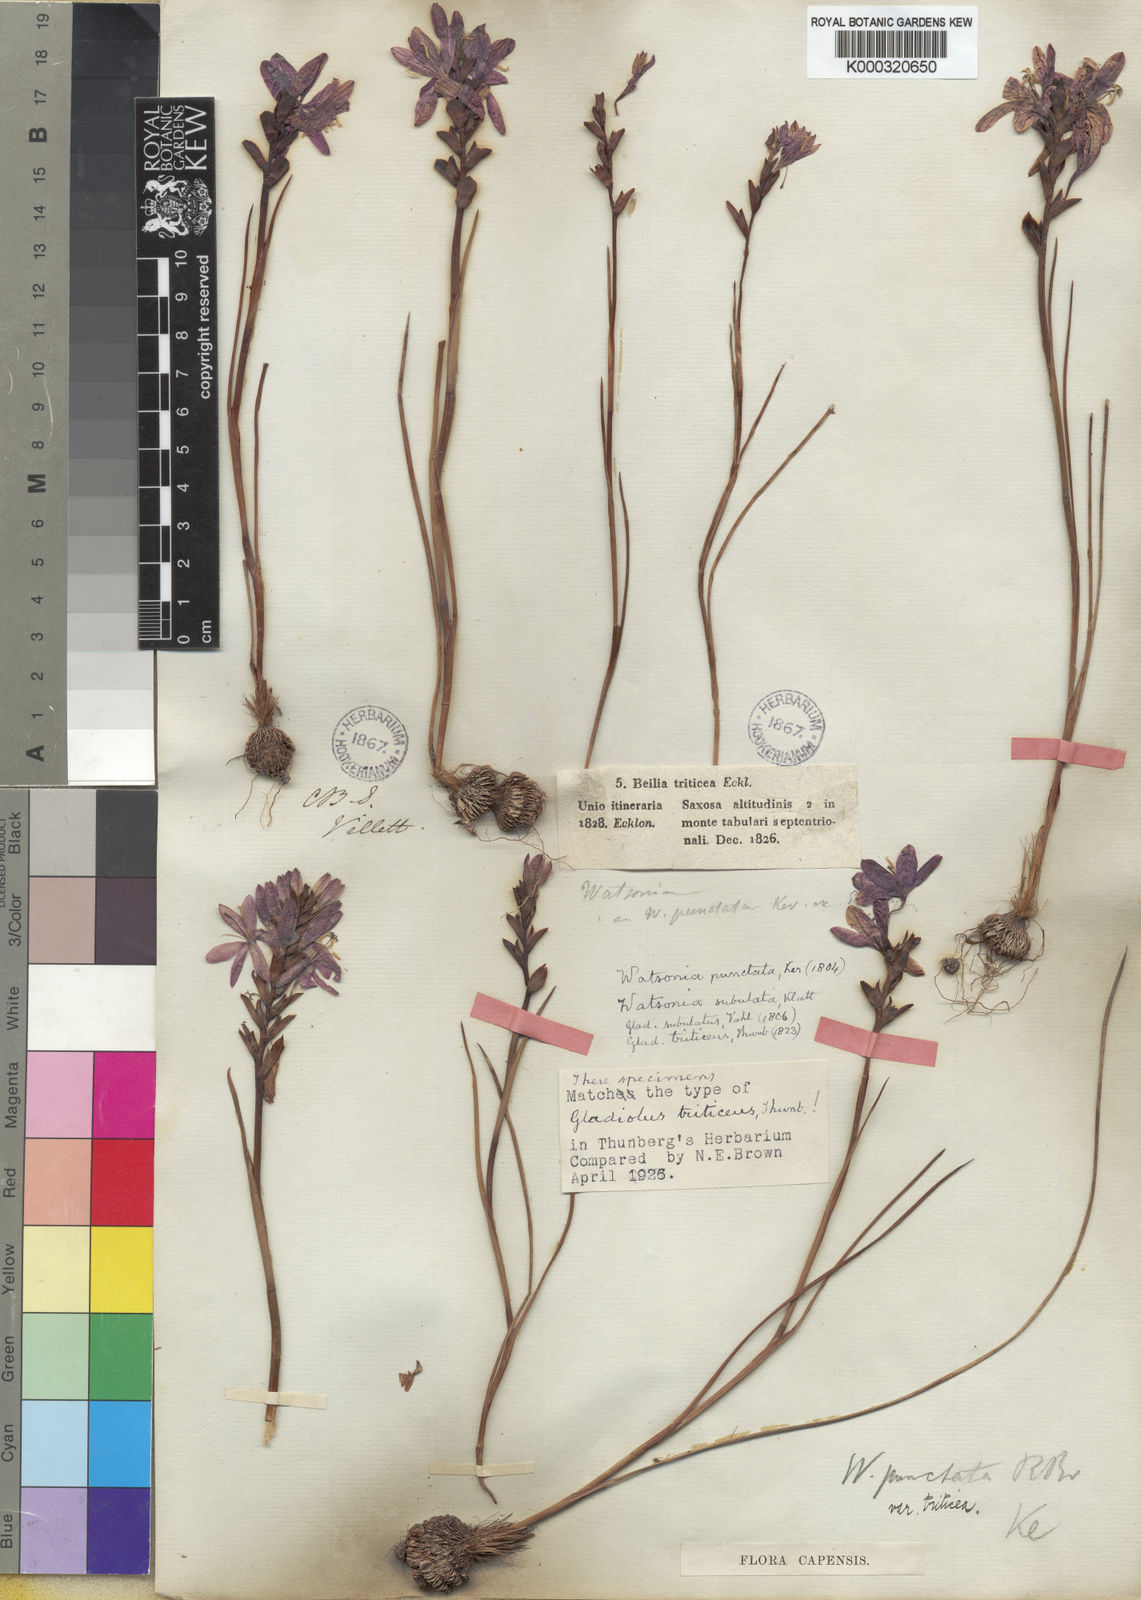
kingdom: Plantae
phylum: Tracheophyta
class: Liliopsida
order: Asparagales
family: Iridaceae
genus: Thereianthus
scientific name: Thereianthus spicatus
